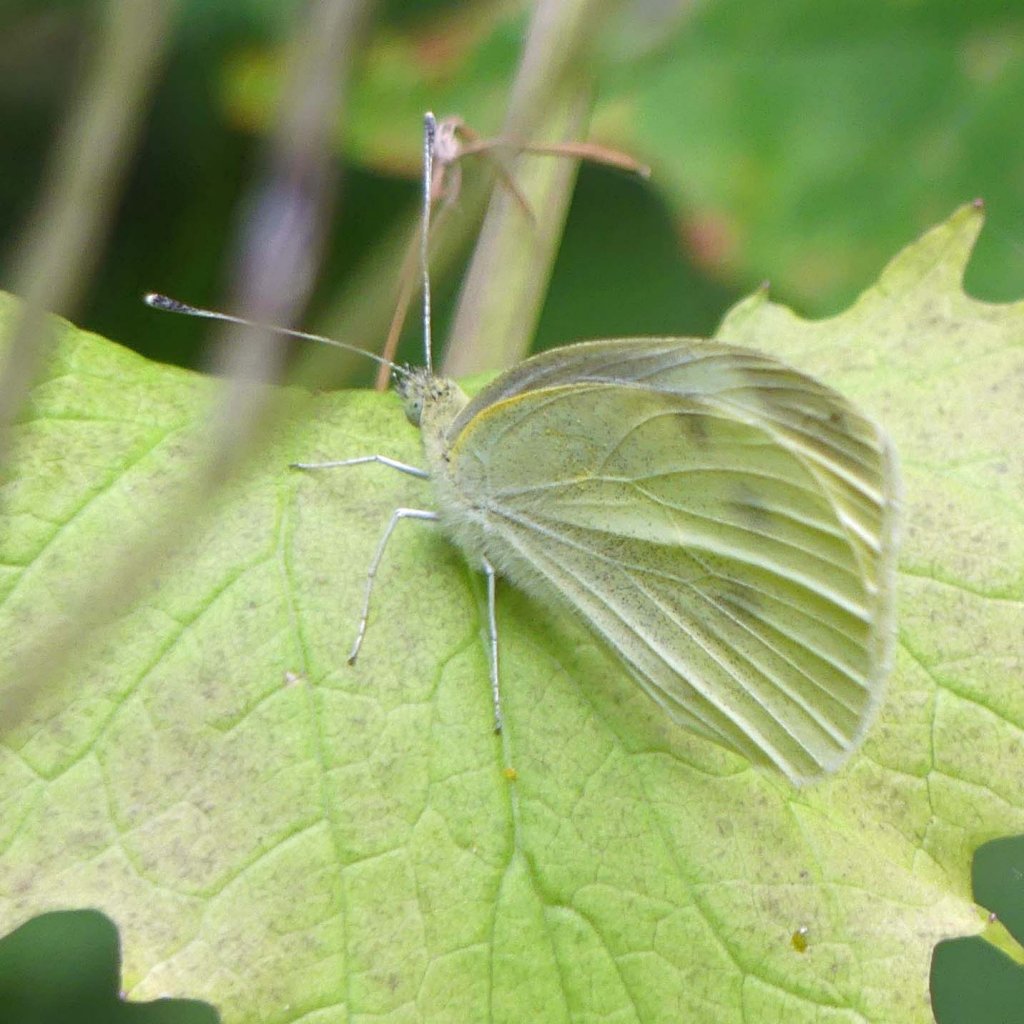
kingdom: Animalia
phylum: Arthropoda
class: Insecta
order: Lepidoptera
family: Pieridae
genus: Pieris
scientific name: Pieris rapae
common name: Cabbage White
